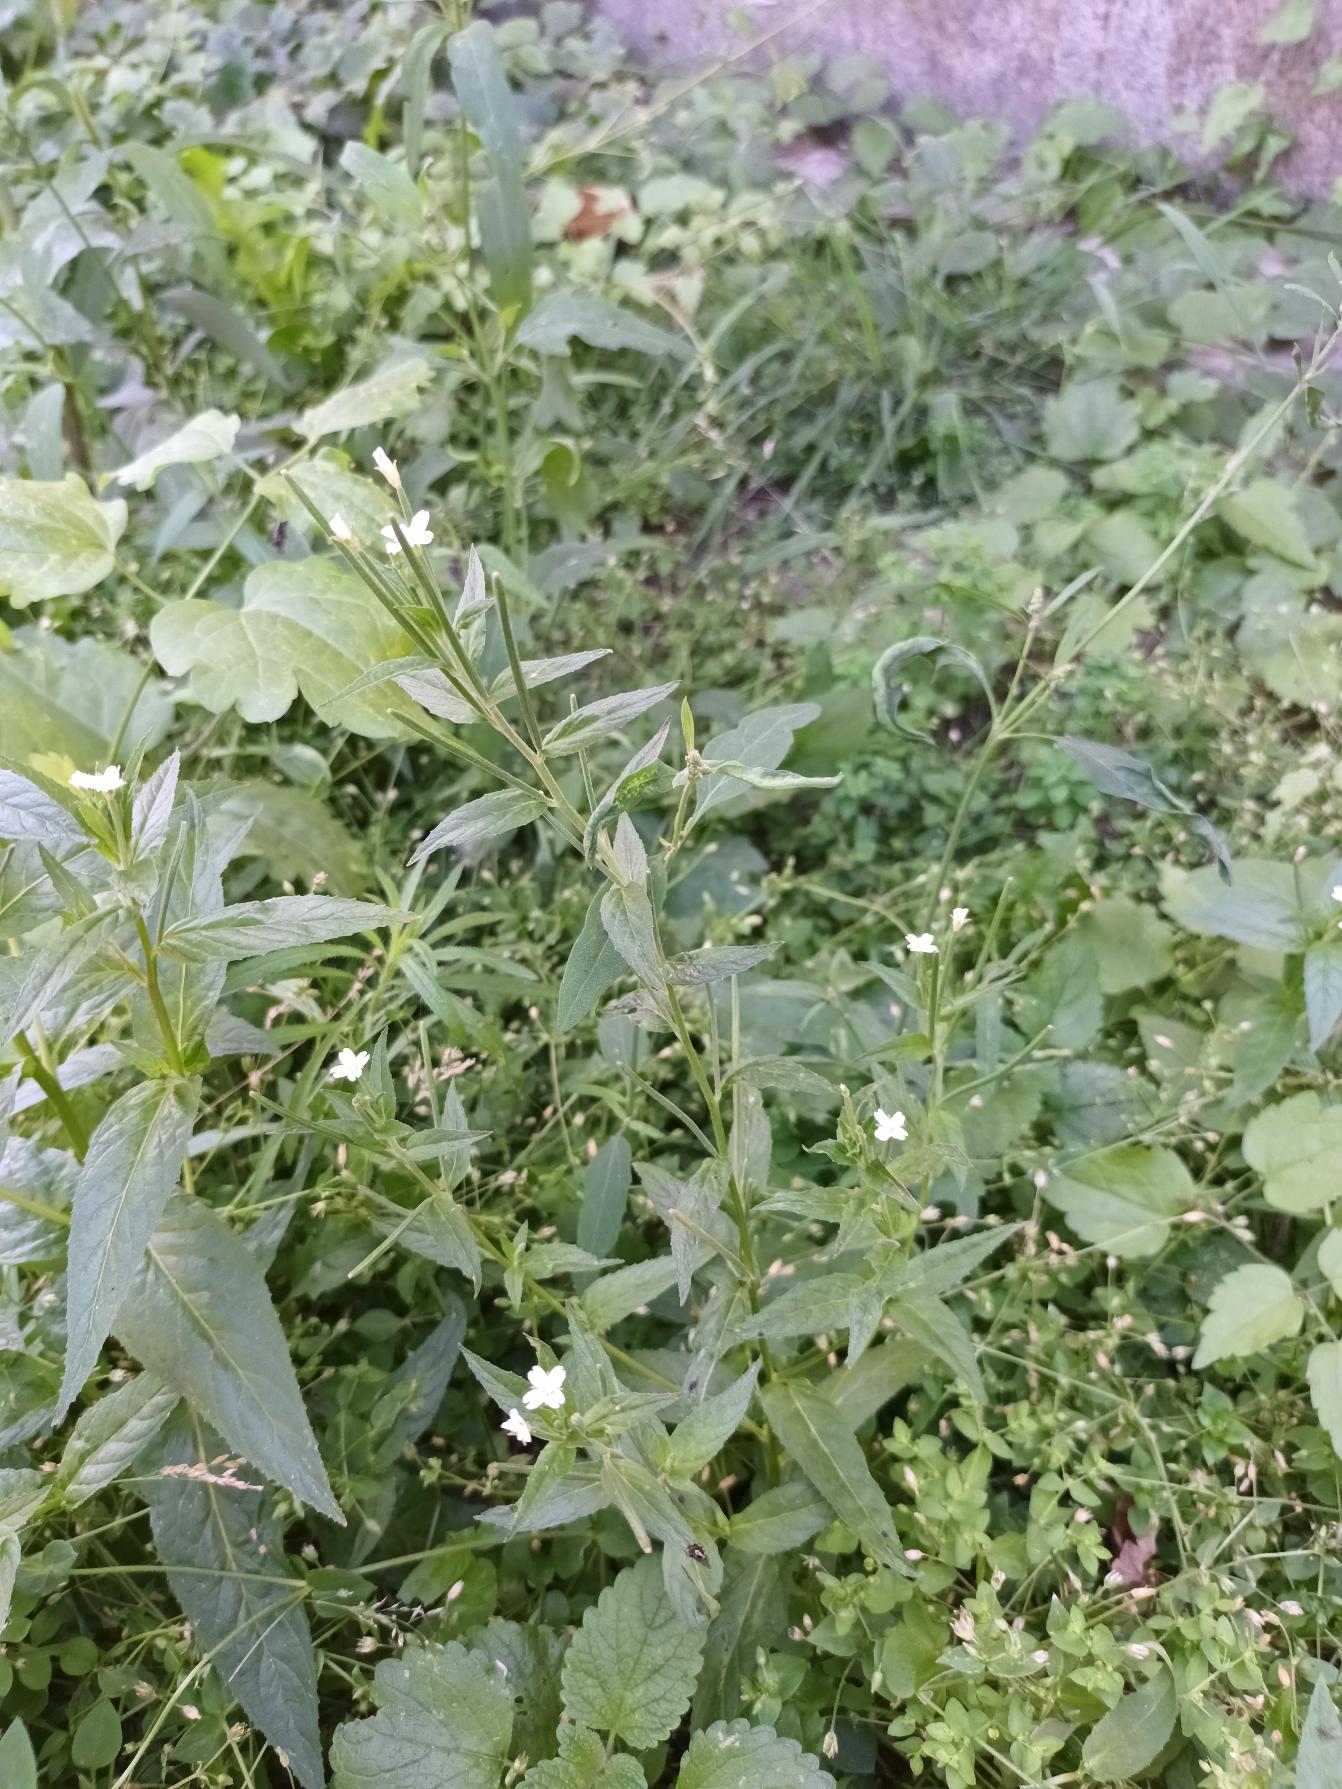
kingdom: Plantae
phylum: Tracheophyta
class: Magnoliopsida
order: Myrtales
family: Onagraceae
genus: Epilobium
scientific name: Epilobium ciliatum
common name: Hvid dueurt
